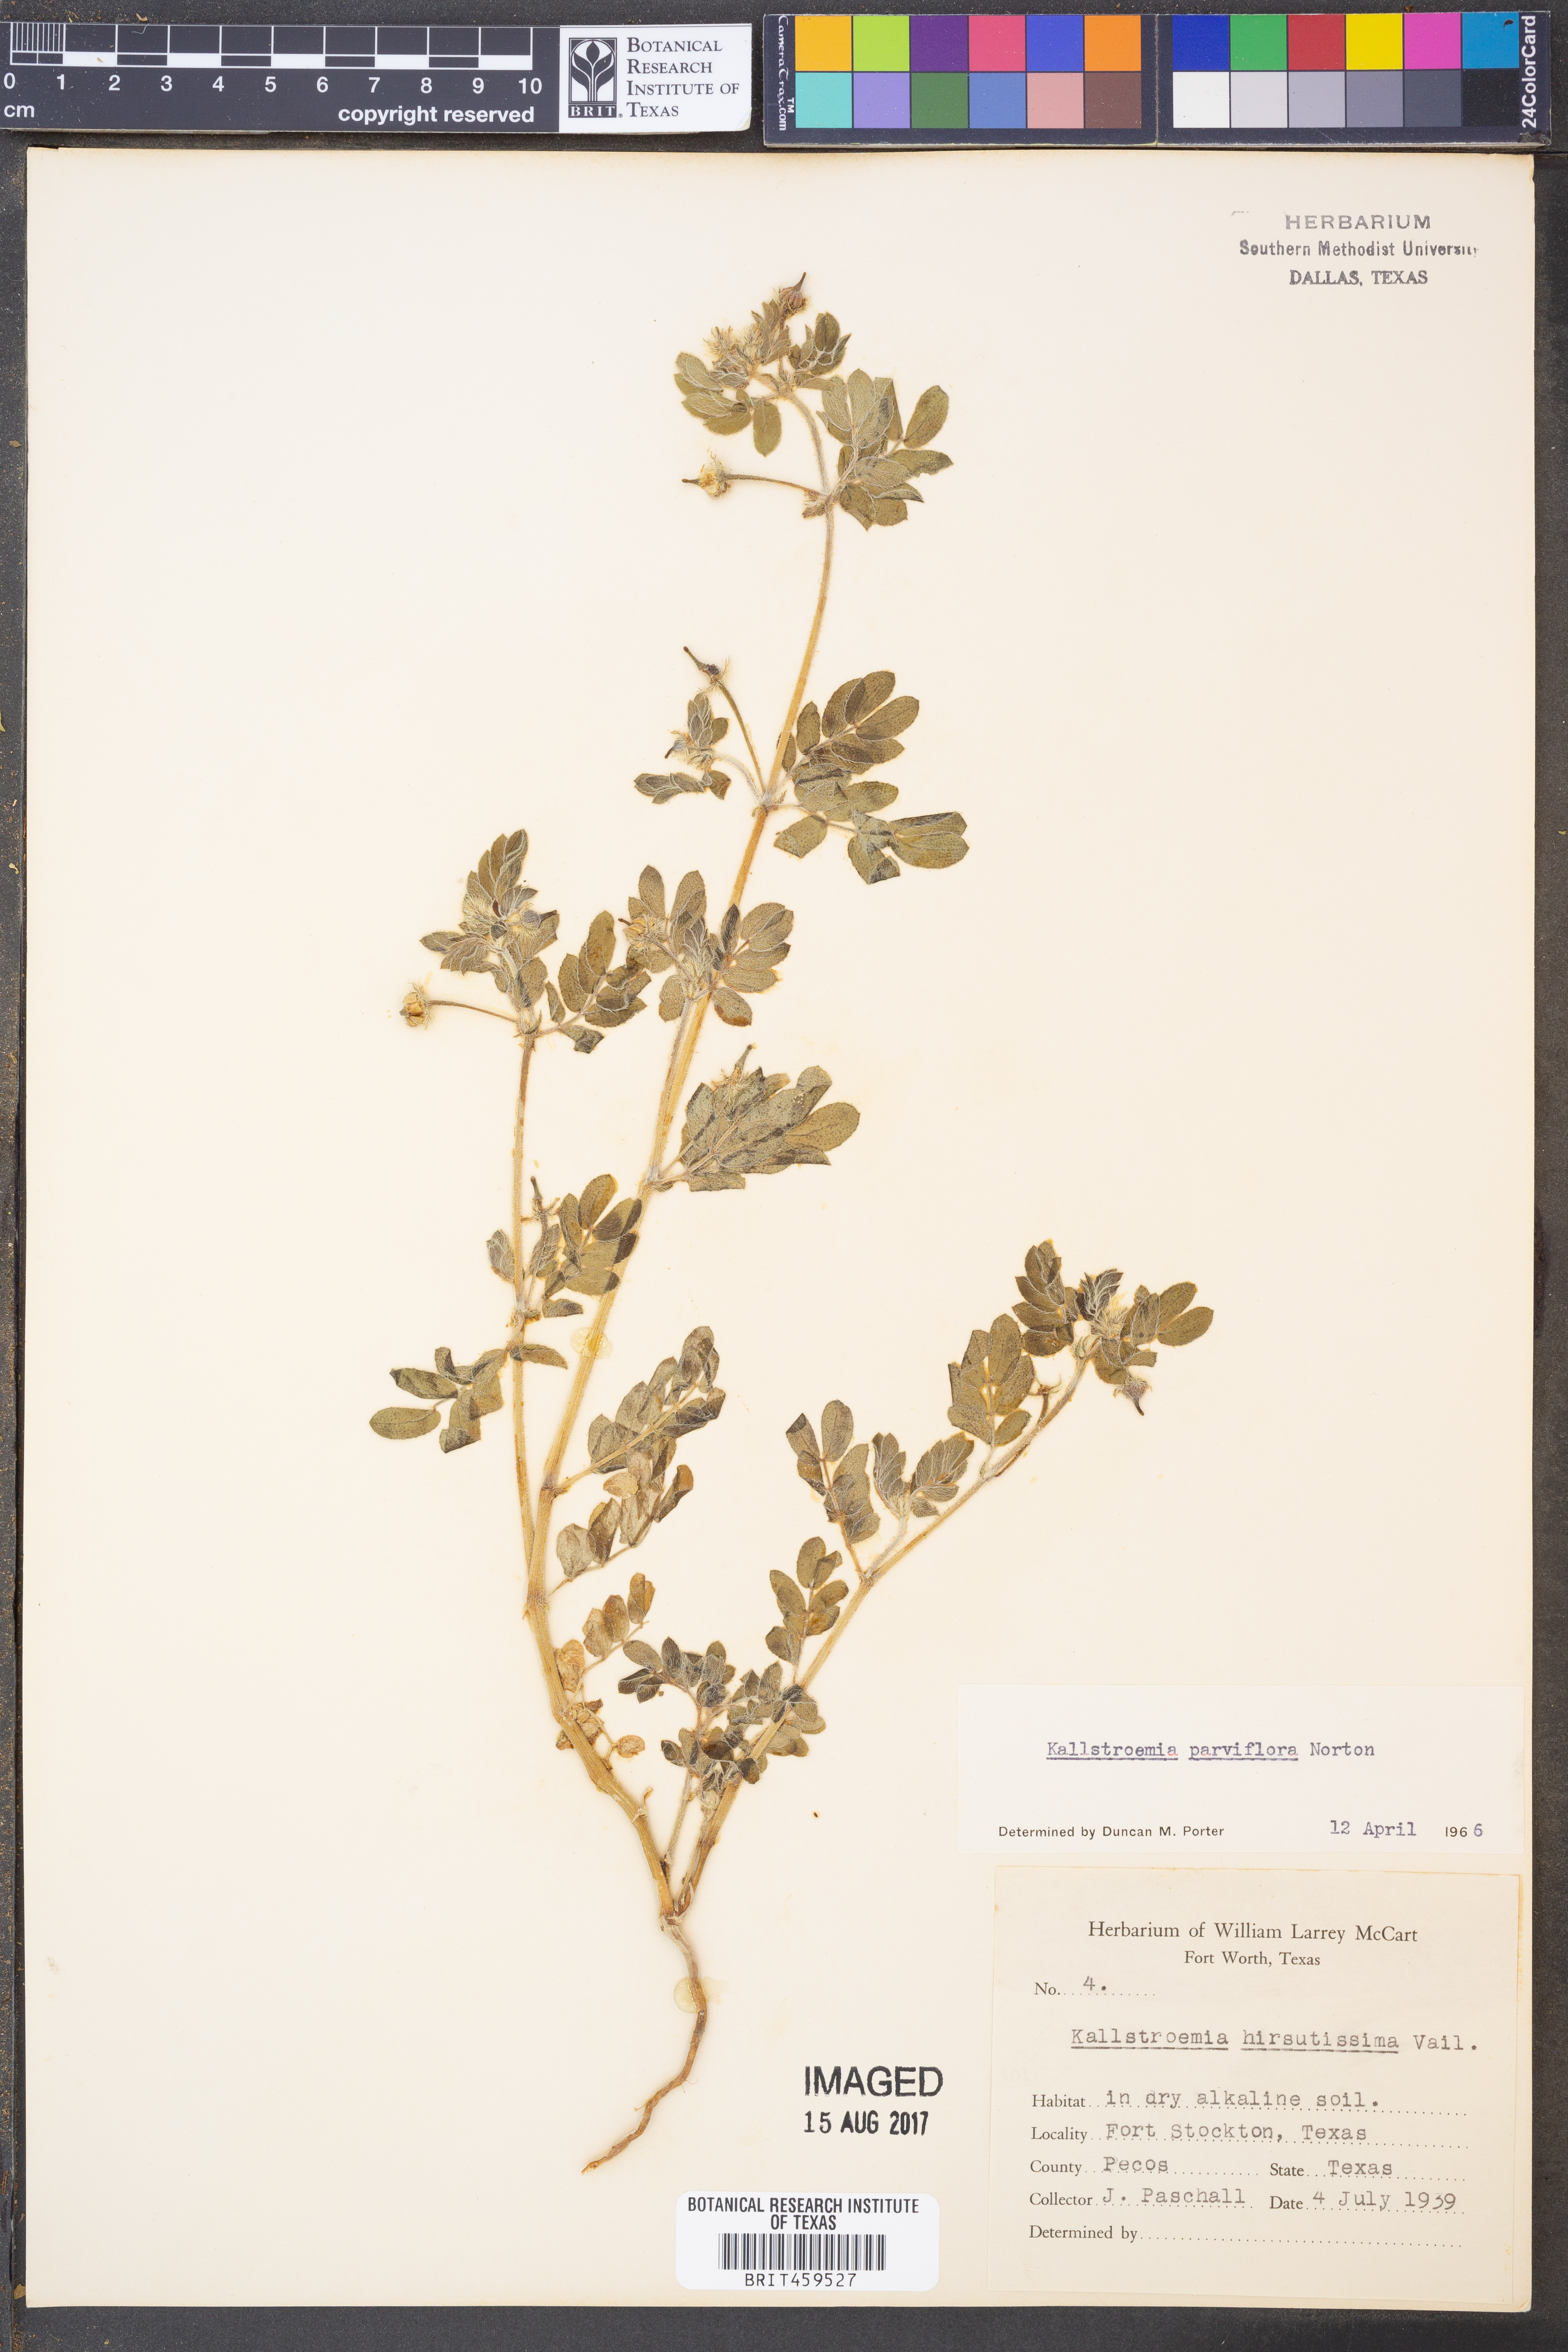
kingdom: Plantae
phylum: Tracheophyta
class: Magnoliopsida
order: Zygophyllales
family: Zygophyllaceae
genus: Kallstroemia
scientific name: Kallstroemia hirsutissima
